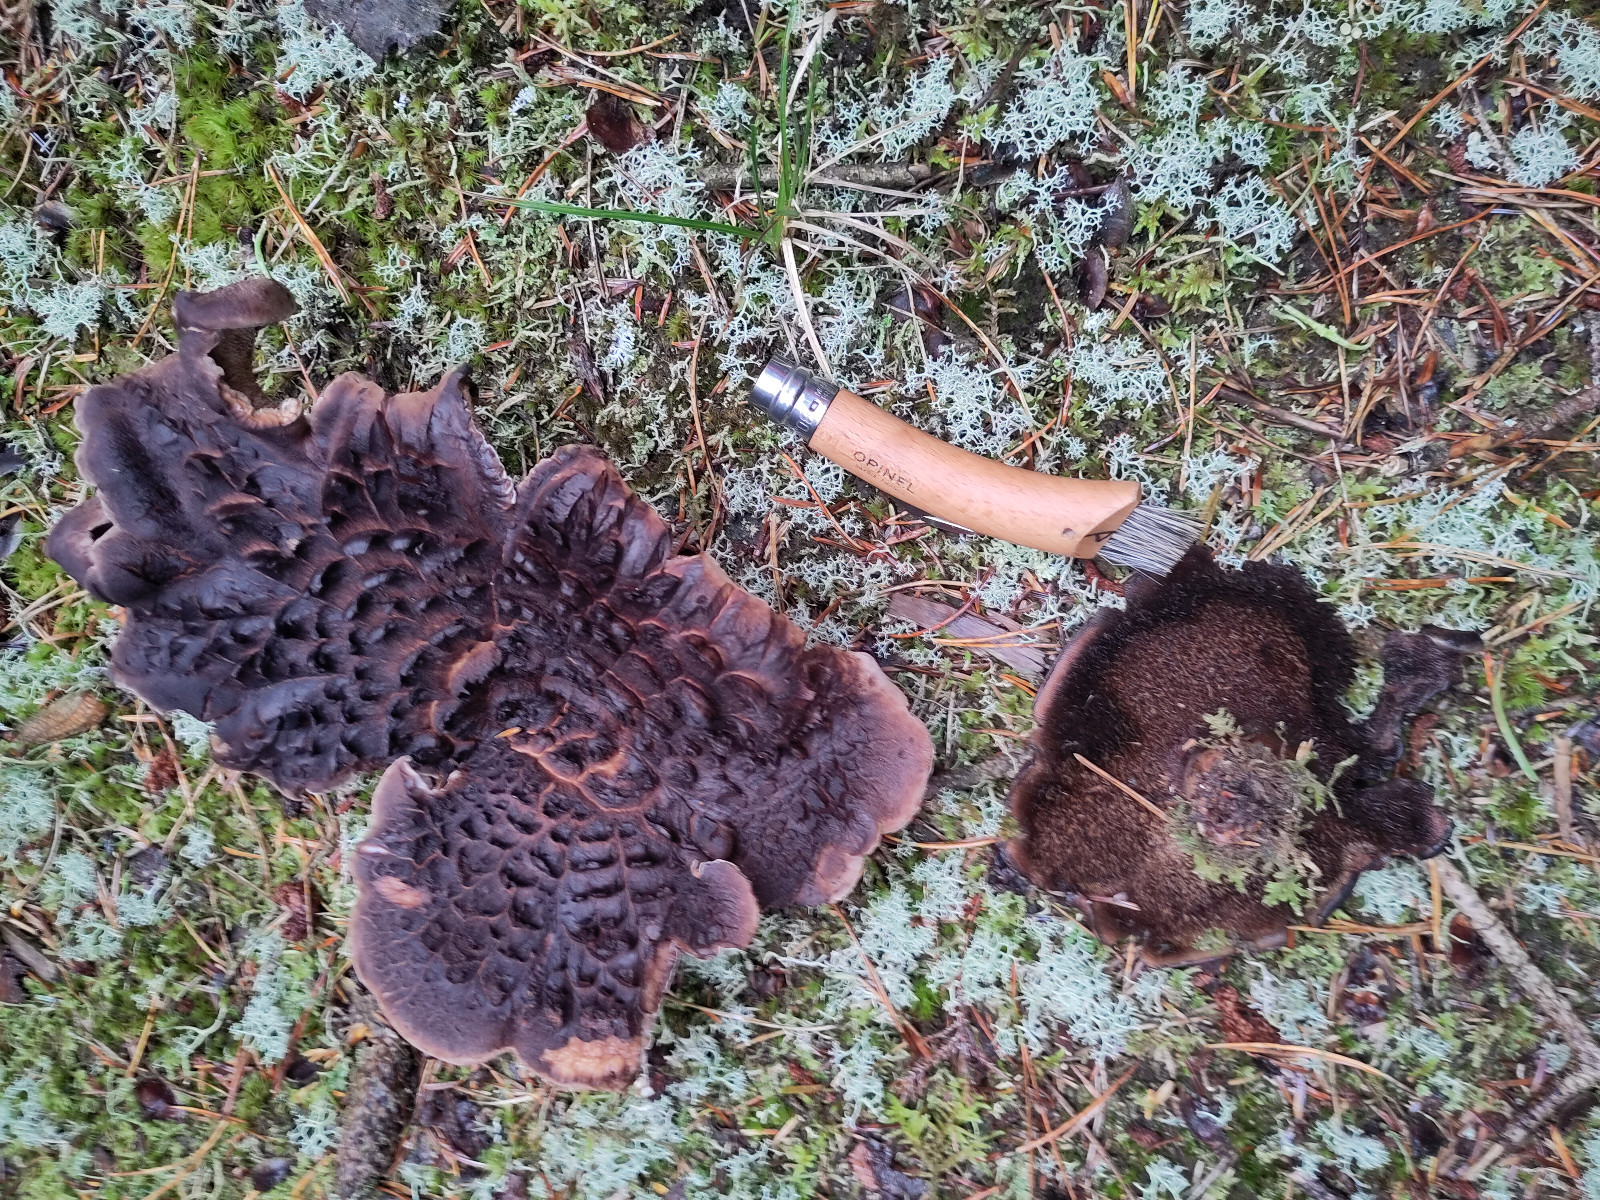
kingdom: Fungi
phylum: Basidiomycota
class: Agaricomycetes
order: Thelephorales
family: Bankeraceae
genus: Sarcodon
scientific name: Sarcodon imbricatus
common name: skællet kødpigsvamp
